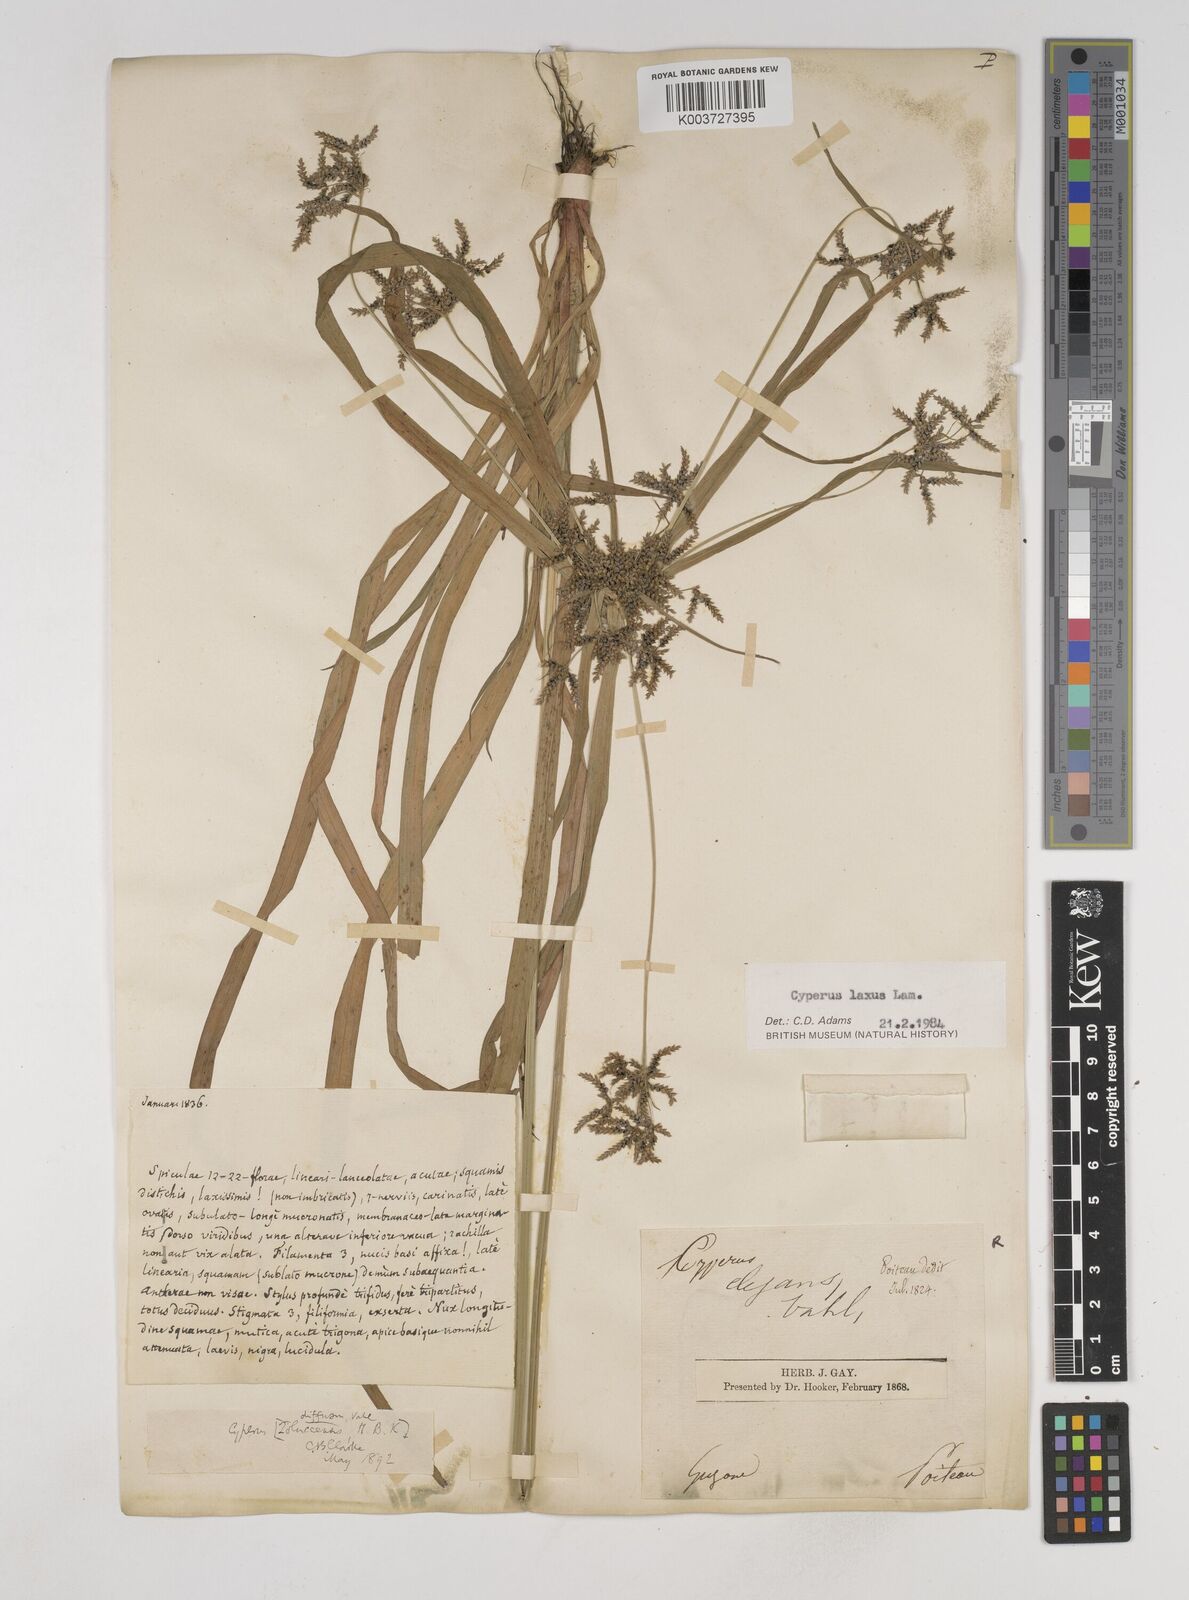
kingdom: Plantae
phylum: Tracheophyta
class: Liliopsida
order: Poales
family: Cyperaceae
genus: Cyperus
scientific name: Cyperus chalaranthus
